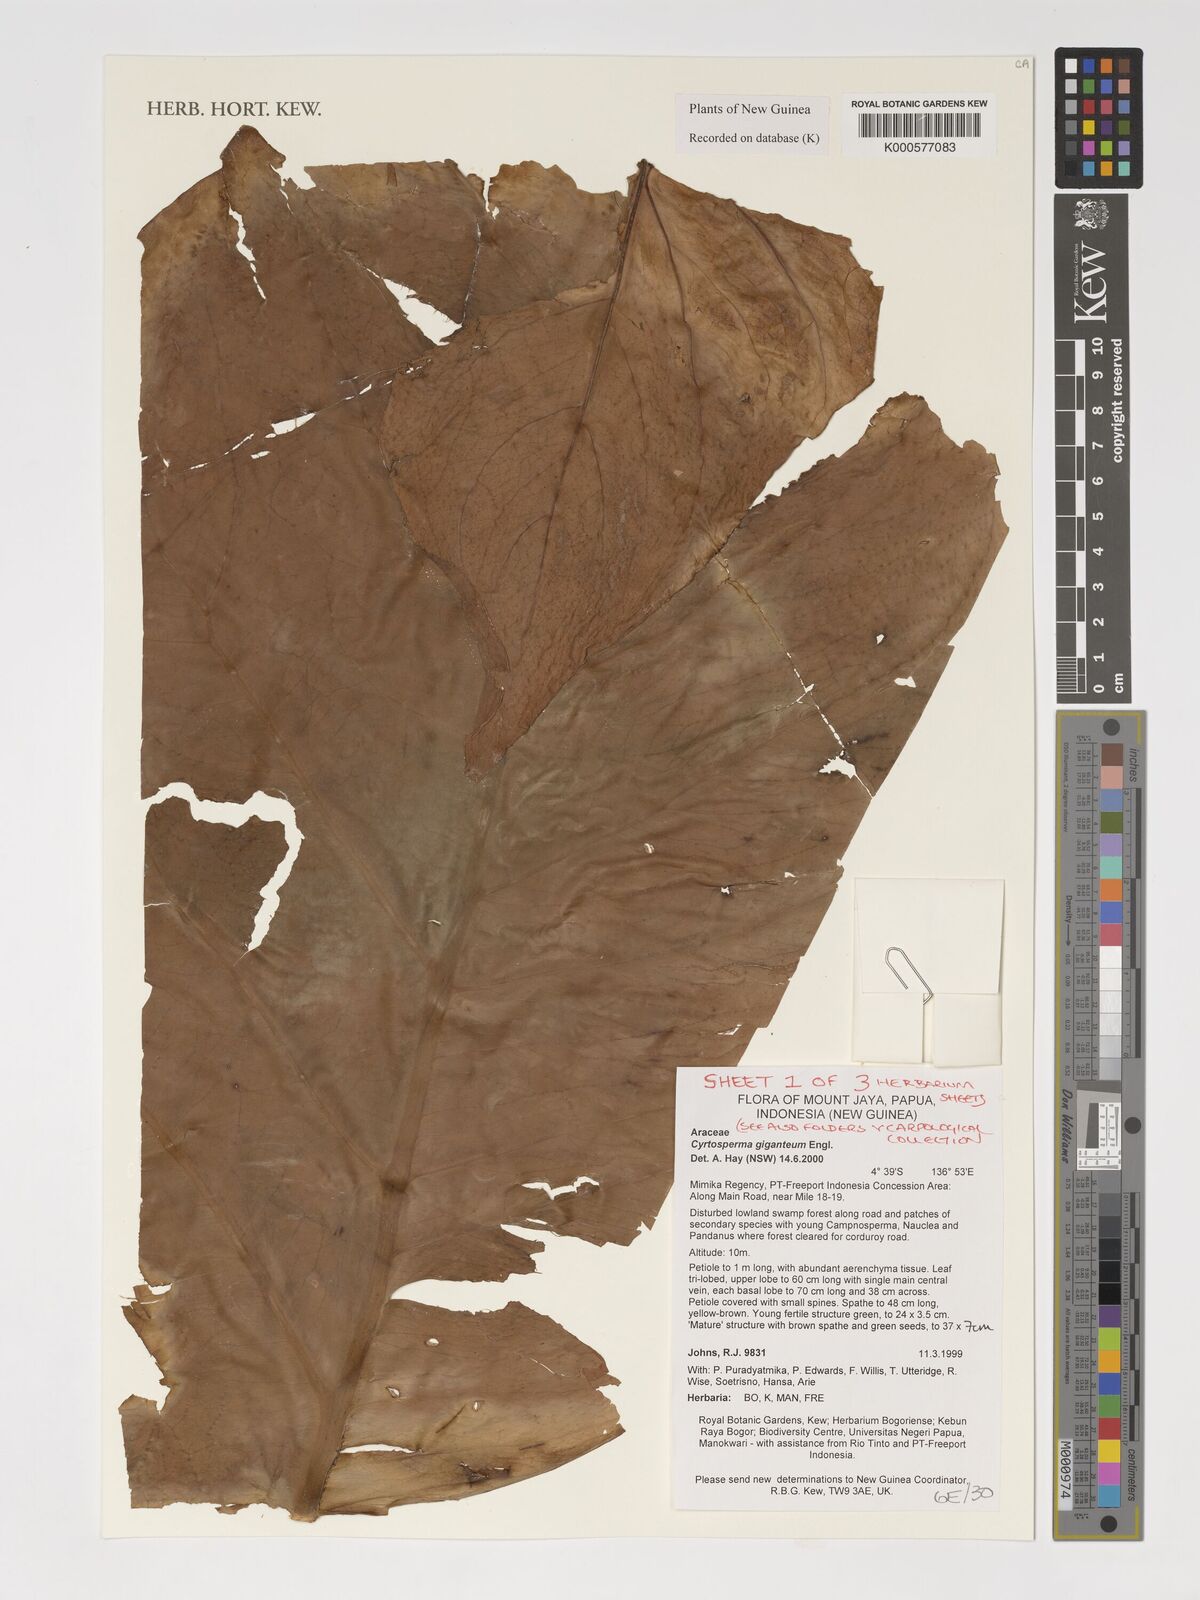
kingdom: Plantae
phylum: Tracheophyta
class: Liliopsida
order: Alismatales
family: Araceae
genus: Cyrtosperma
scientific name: Cyrtosperma giganteum
